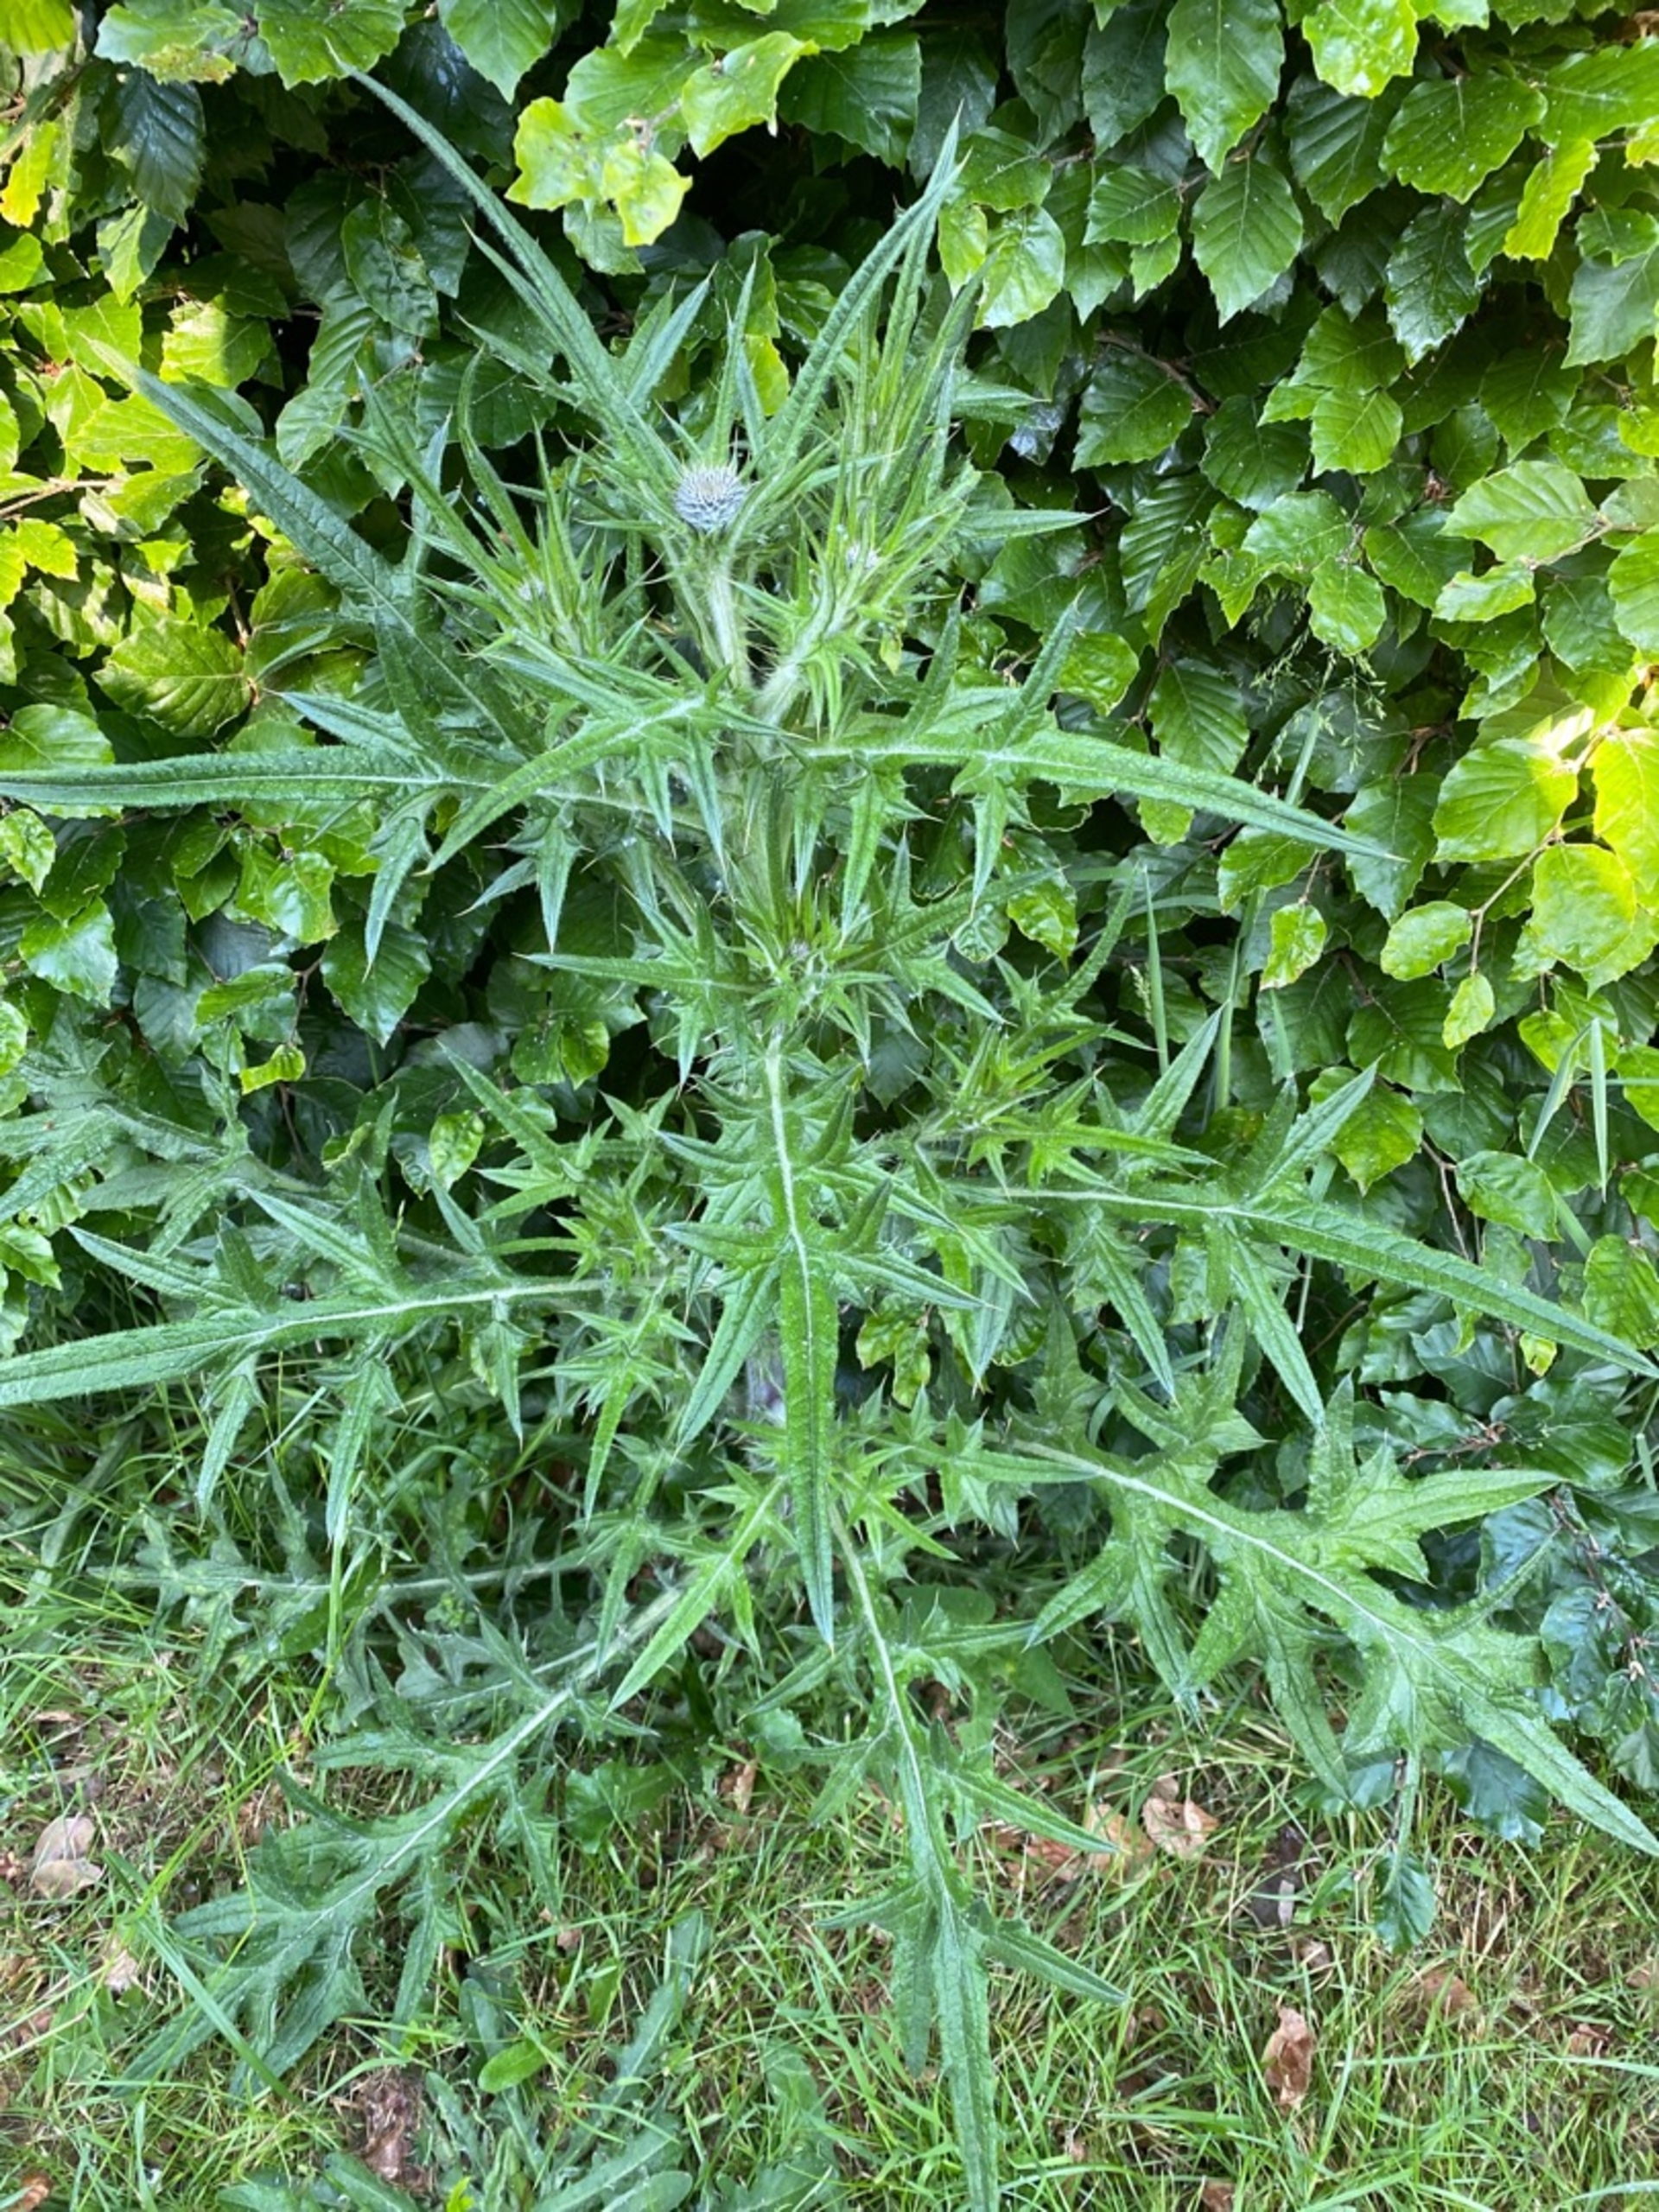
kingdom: Plantae
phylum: Tracheophyta
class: Magnoliopsida
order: Asterales
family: Asteraceae
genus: Cirsium
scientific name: Cirsium vulgare
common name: Horse-tidsel
